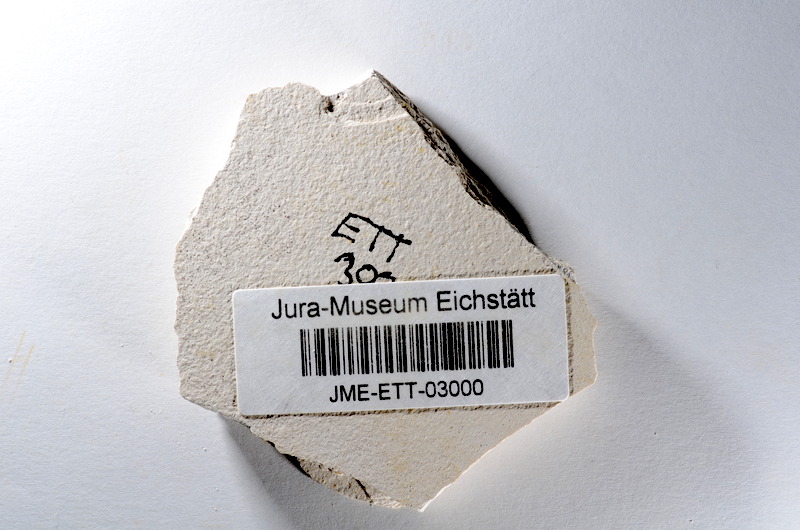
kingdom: Animalia
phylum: Chordata
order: Salmoniformes
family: Orthogonikleithridae
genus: Orthogonikleithrus
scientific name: Orthogonikleithrus hoelli
